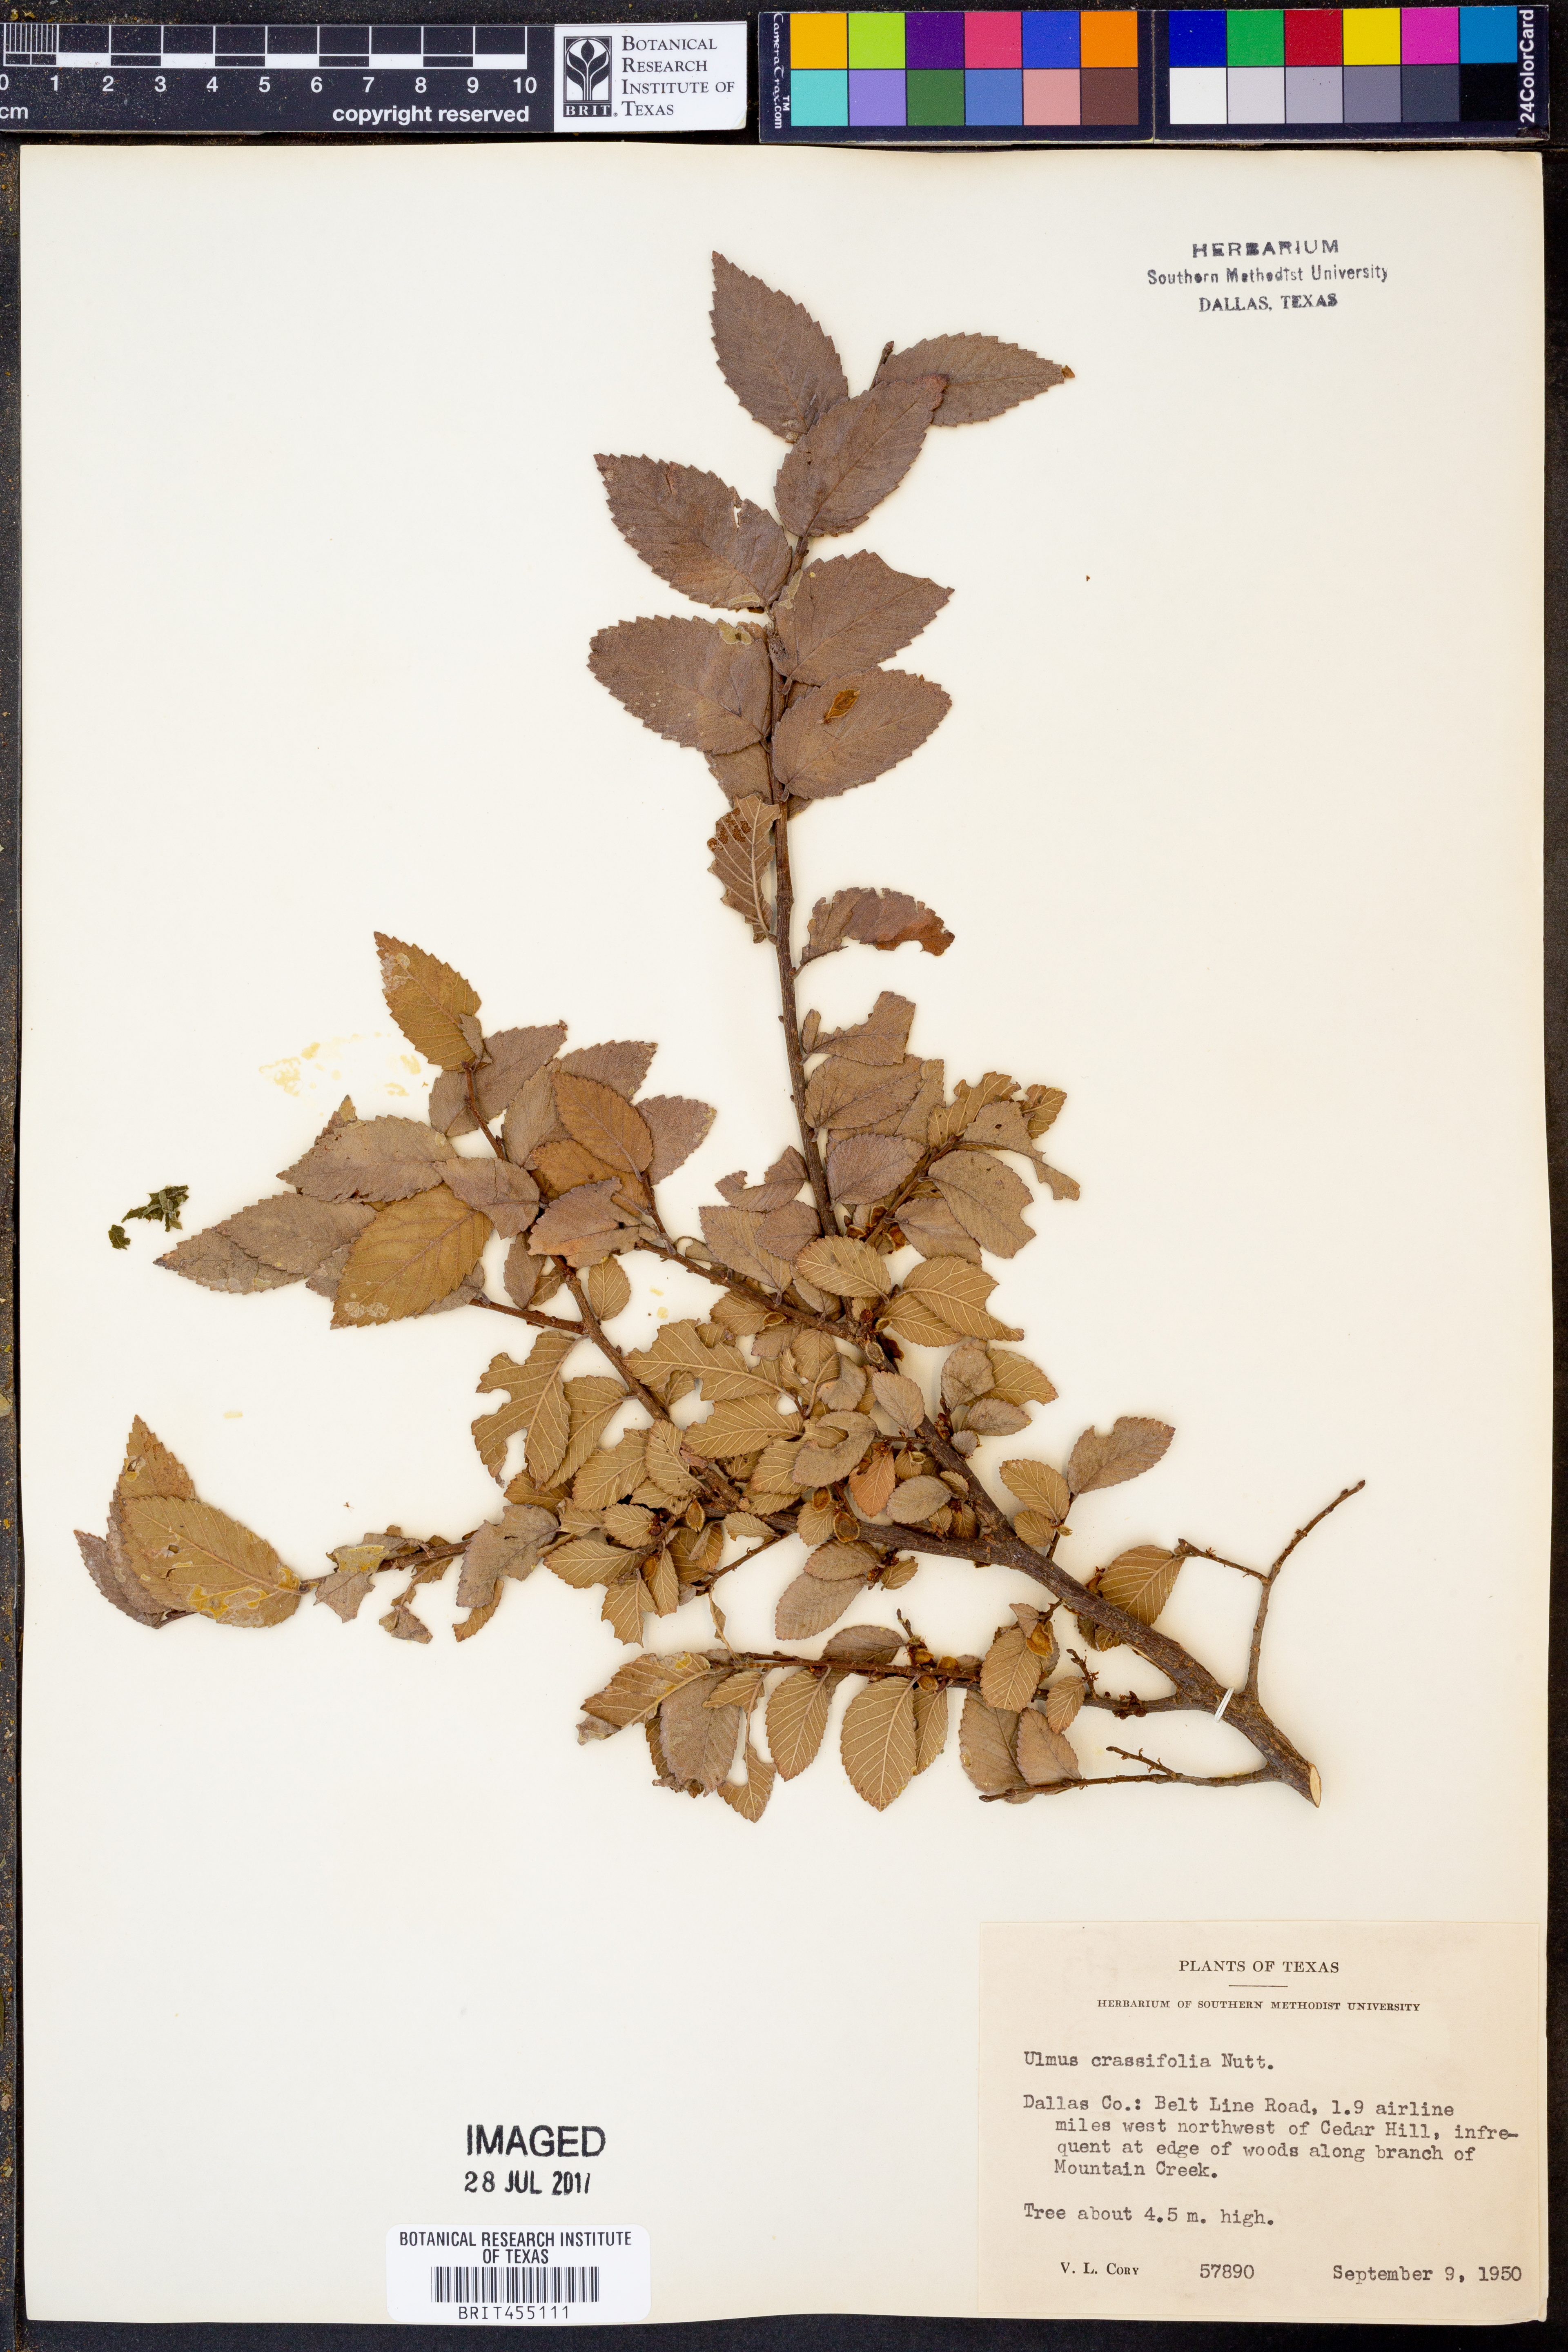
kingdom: Plantae
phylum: Tracheophyta
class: Magnoliopsida
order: Rosales
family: Ulmaceae
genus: Ulmus
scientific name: Ulmus crassifolia
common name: Basket elm
